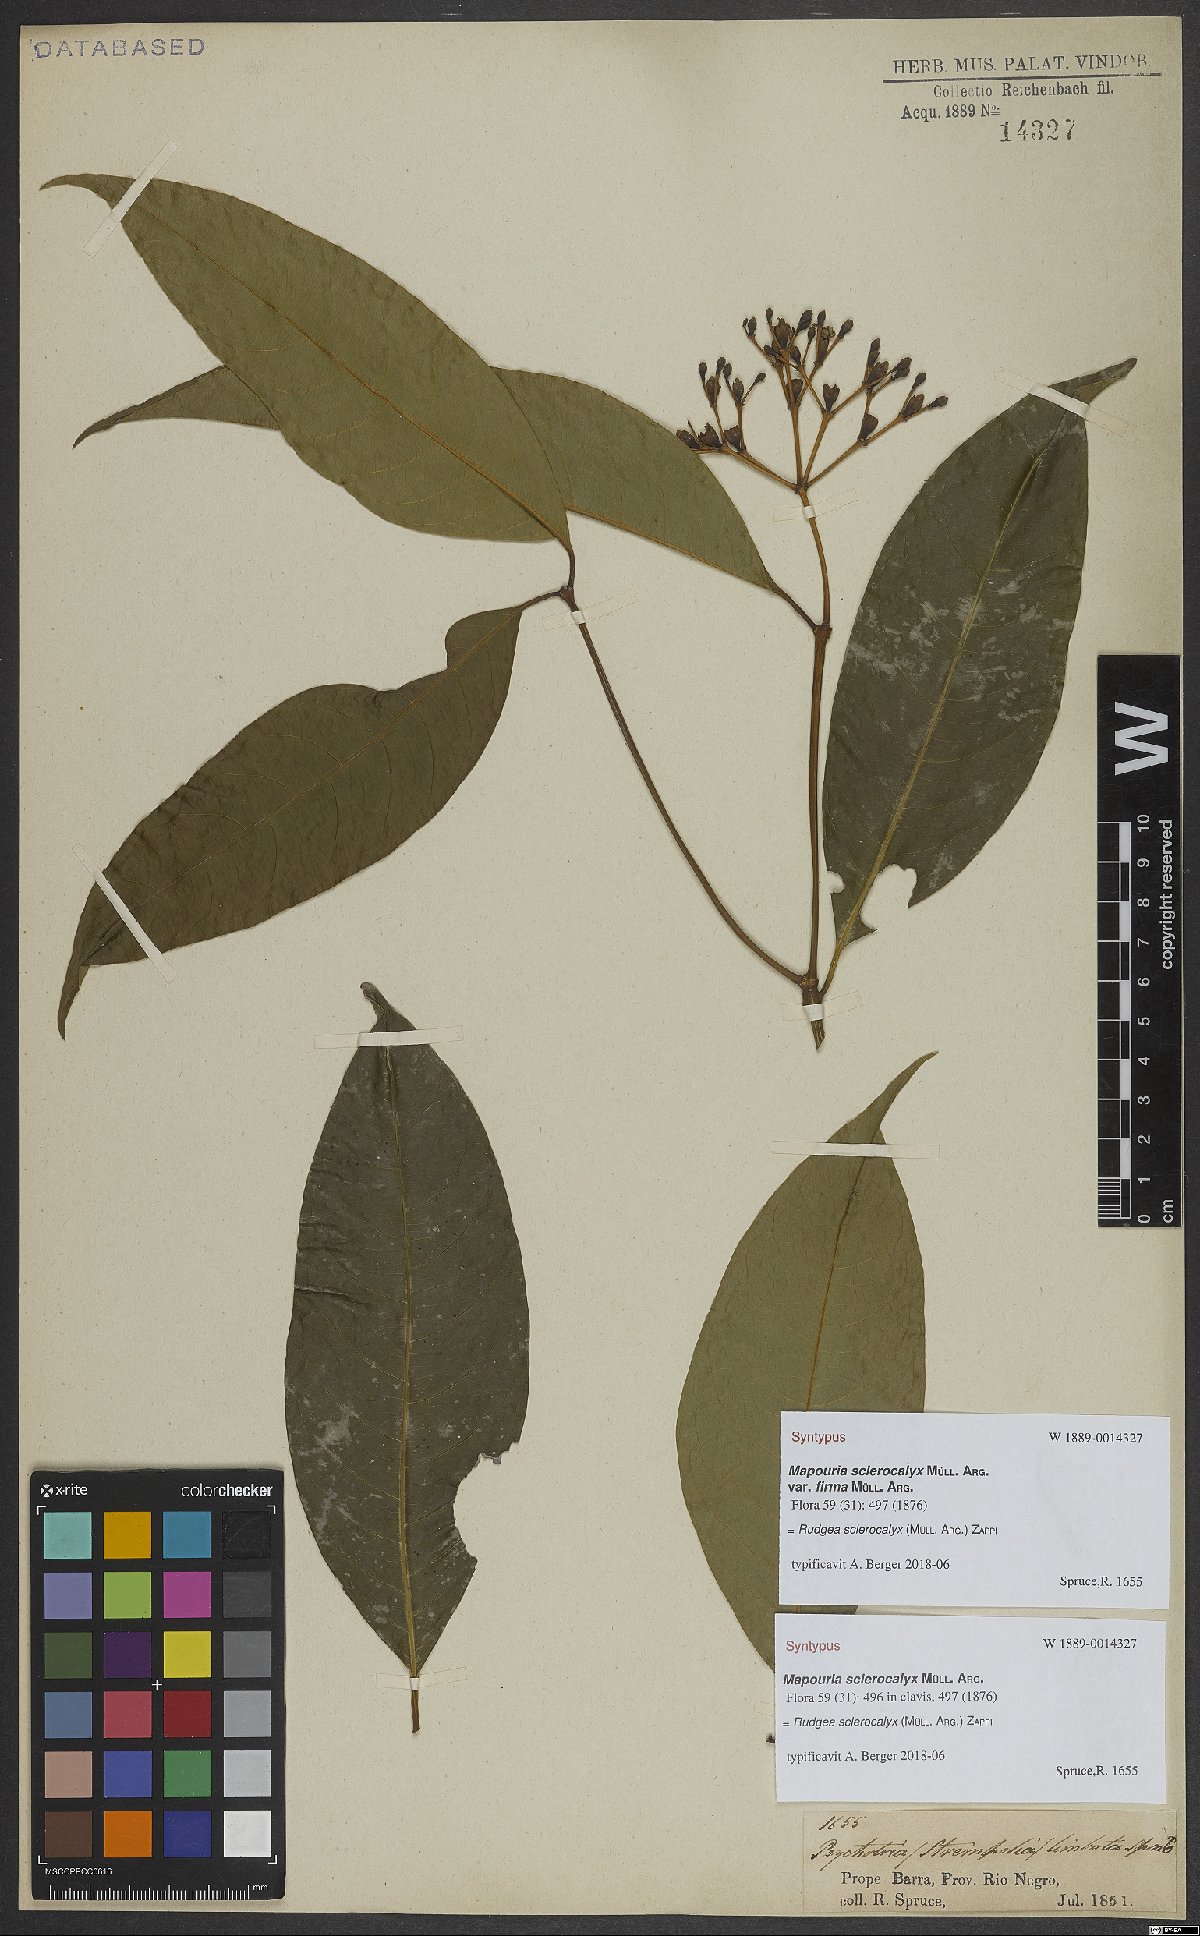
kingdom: Plantae
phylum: Tracheophyta
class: Magnoliopsida
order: Gentianales
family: Rubiaceae
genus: Rudgea
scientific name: Rudgea sclerocalyx
